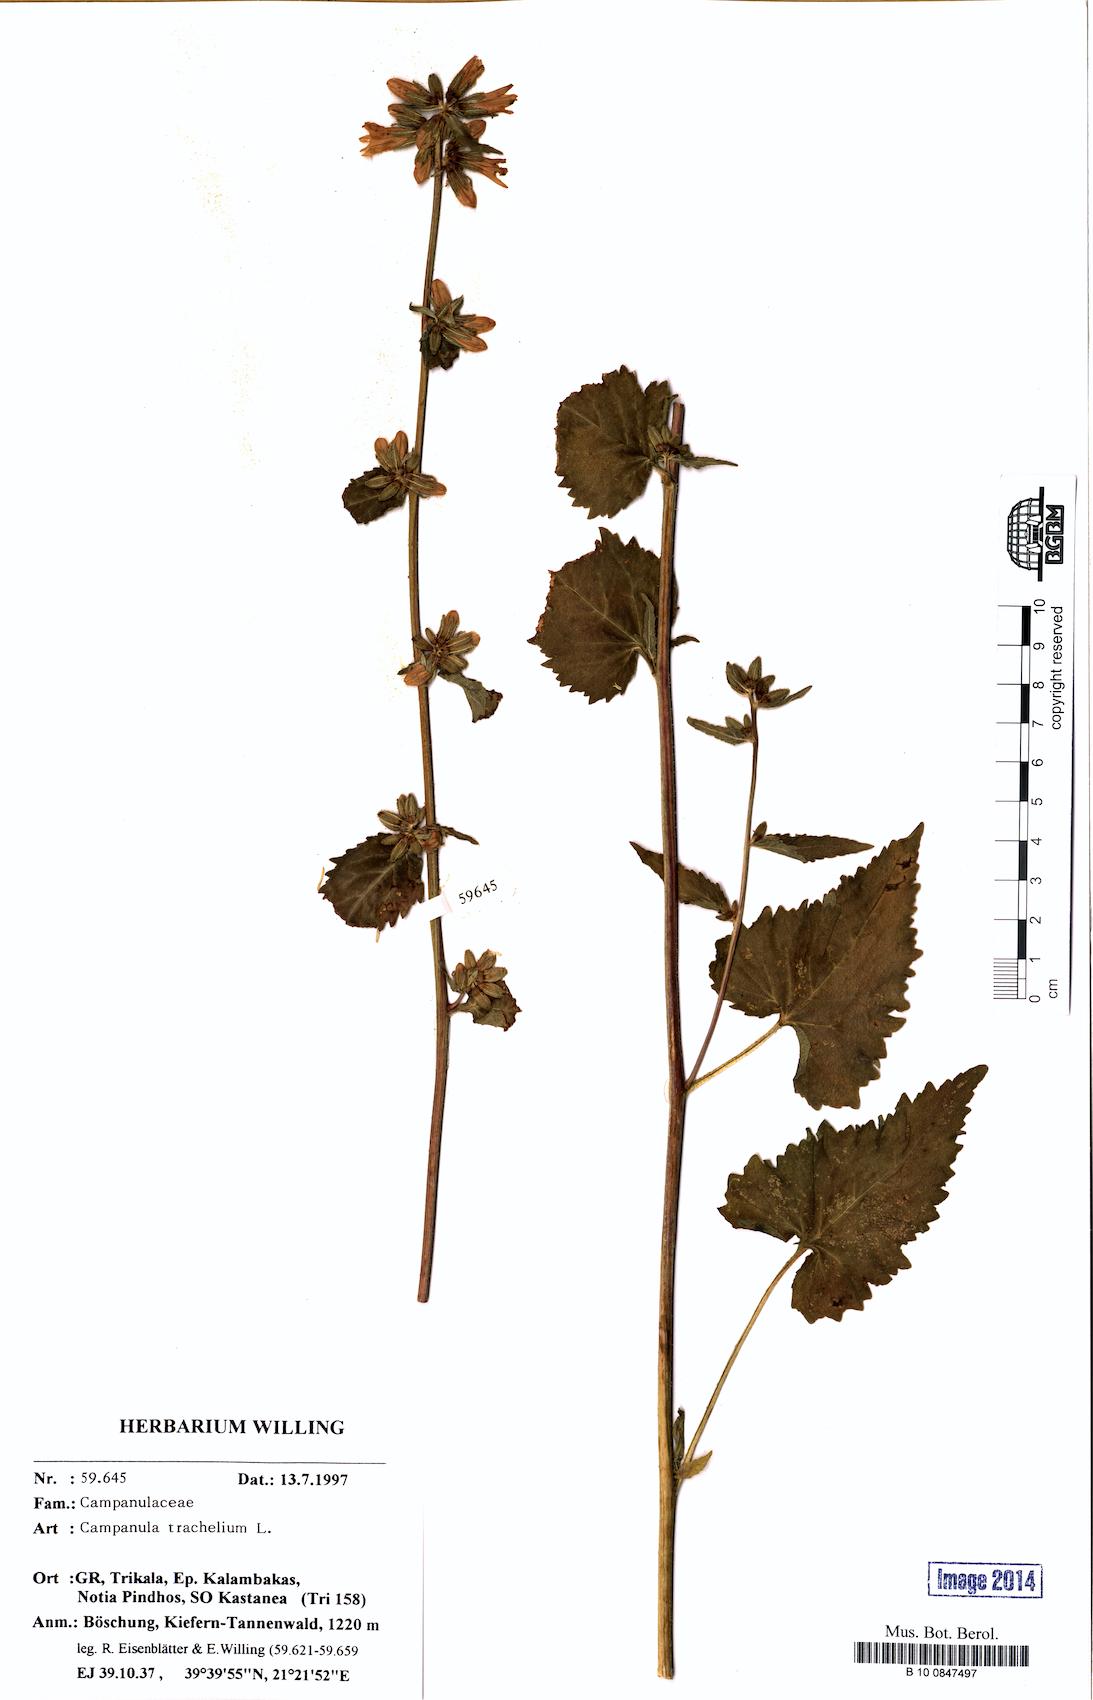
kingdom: Plantae
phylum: Tracheophyta
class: Magnoliopsida
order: Asterales
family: Campanulaceae
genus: Campanula
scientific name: Campanula trachelium
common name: Nettle-leaved bellflower
